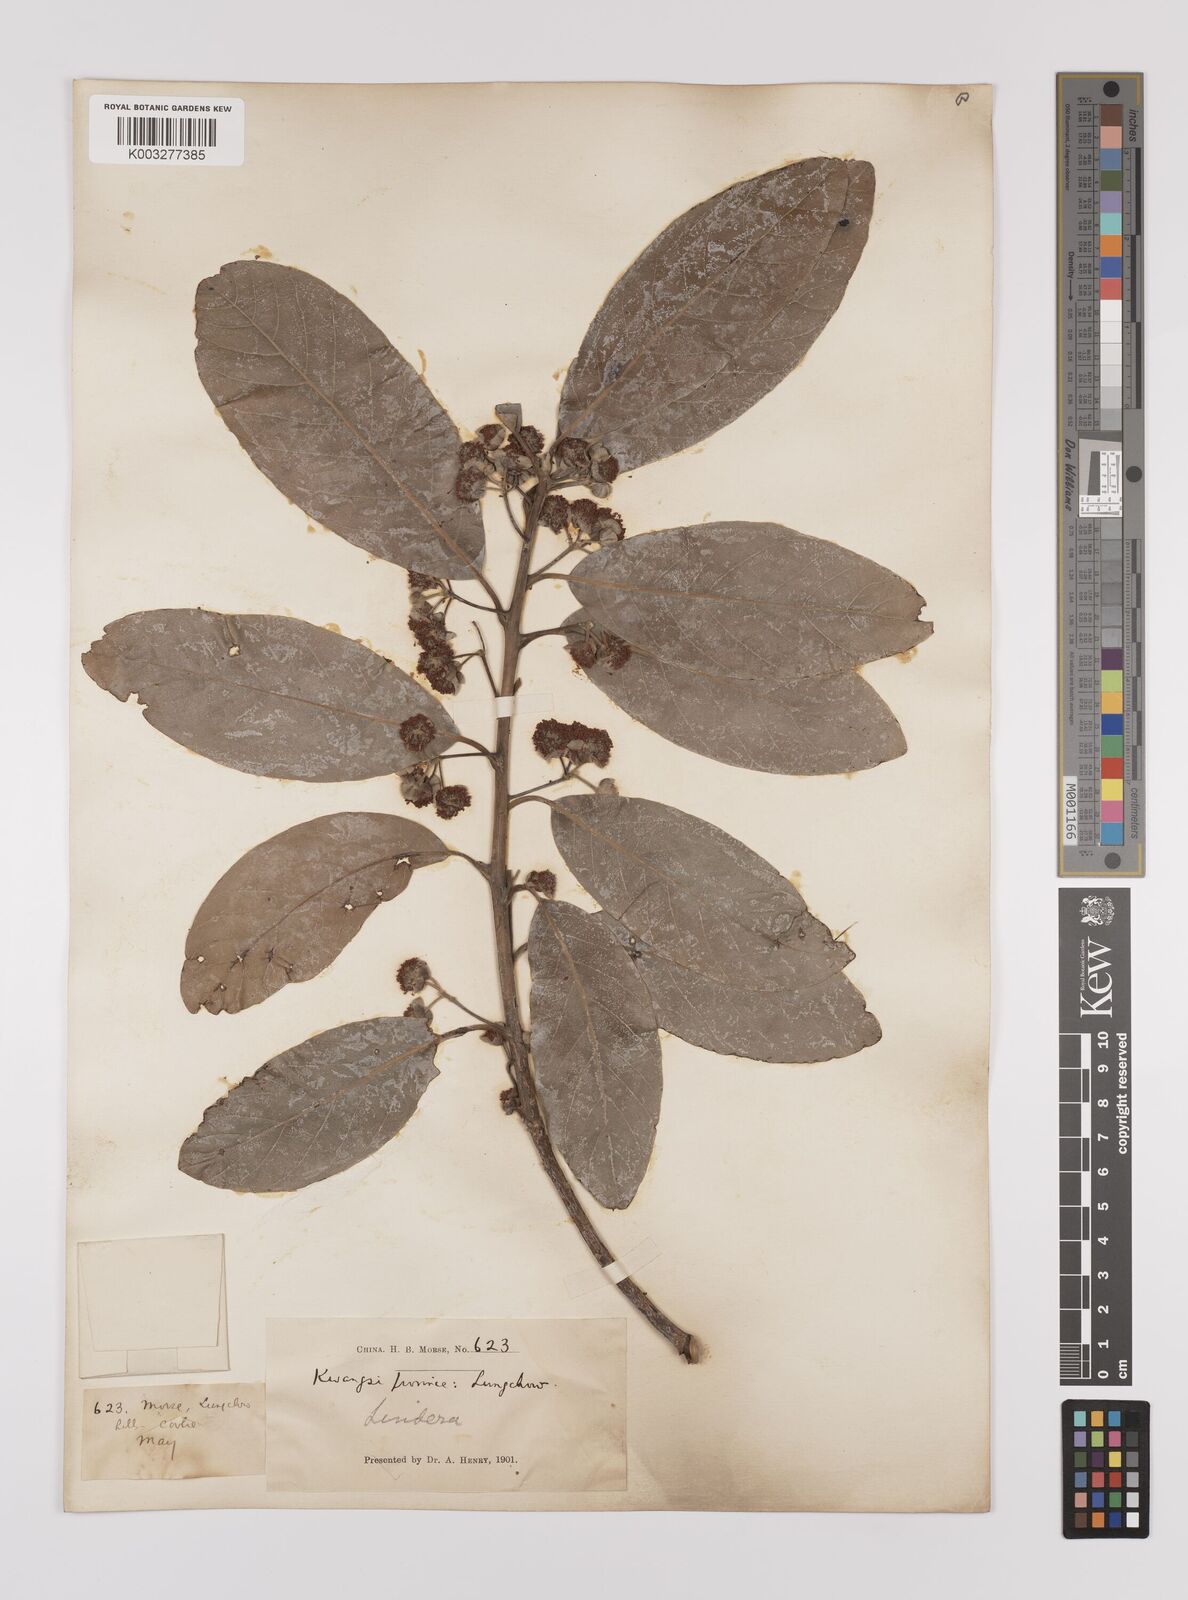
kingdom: Plantae
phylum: Tracheophyta
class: Magnoliopsida
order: Laurales
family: Lauraceae
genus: Litsea
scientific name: Litsea glutinosa
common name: Indian-laurel
